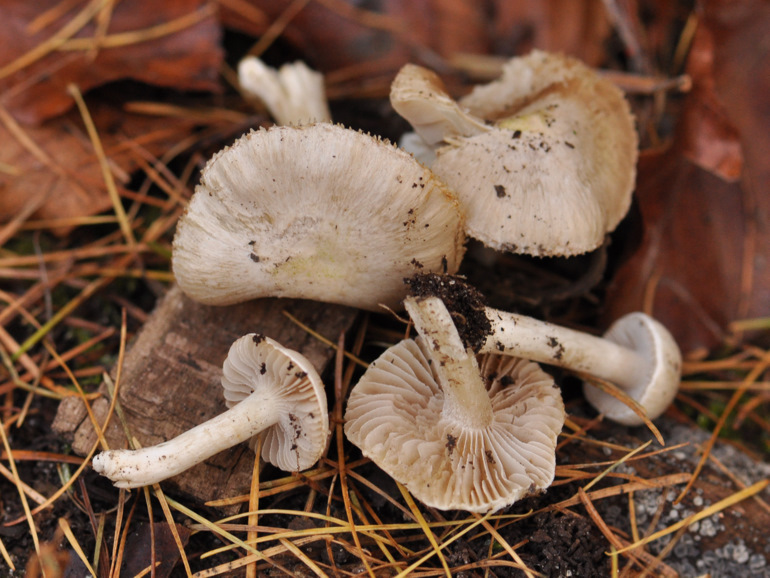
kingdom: Fungi
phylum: Basidiomycota
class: Agaricomycetes
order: Agaricales
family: Inocybaceae
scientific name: Inocybaceae
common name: trævlhatfamilien
